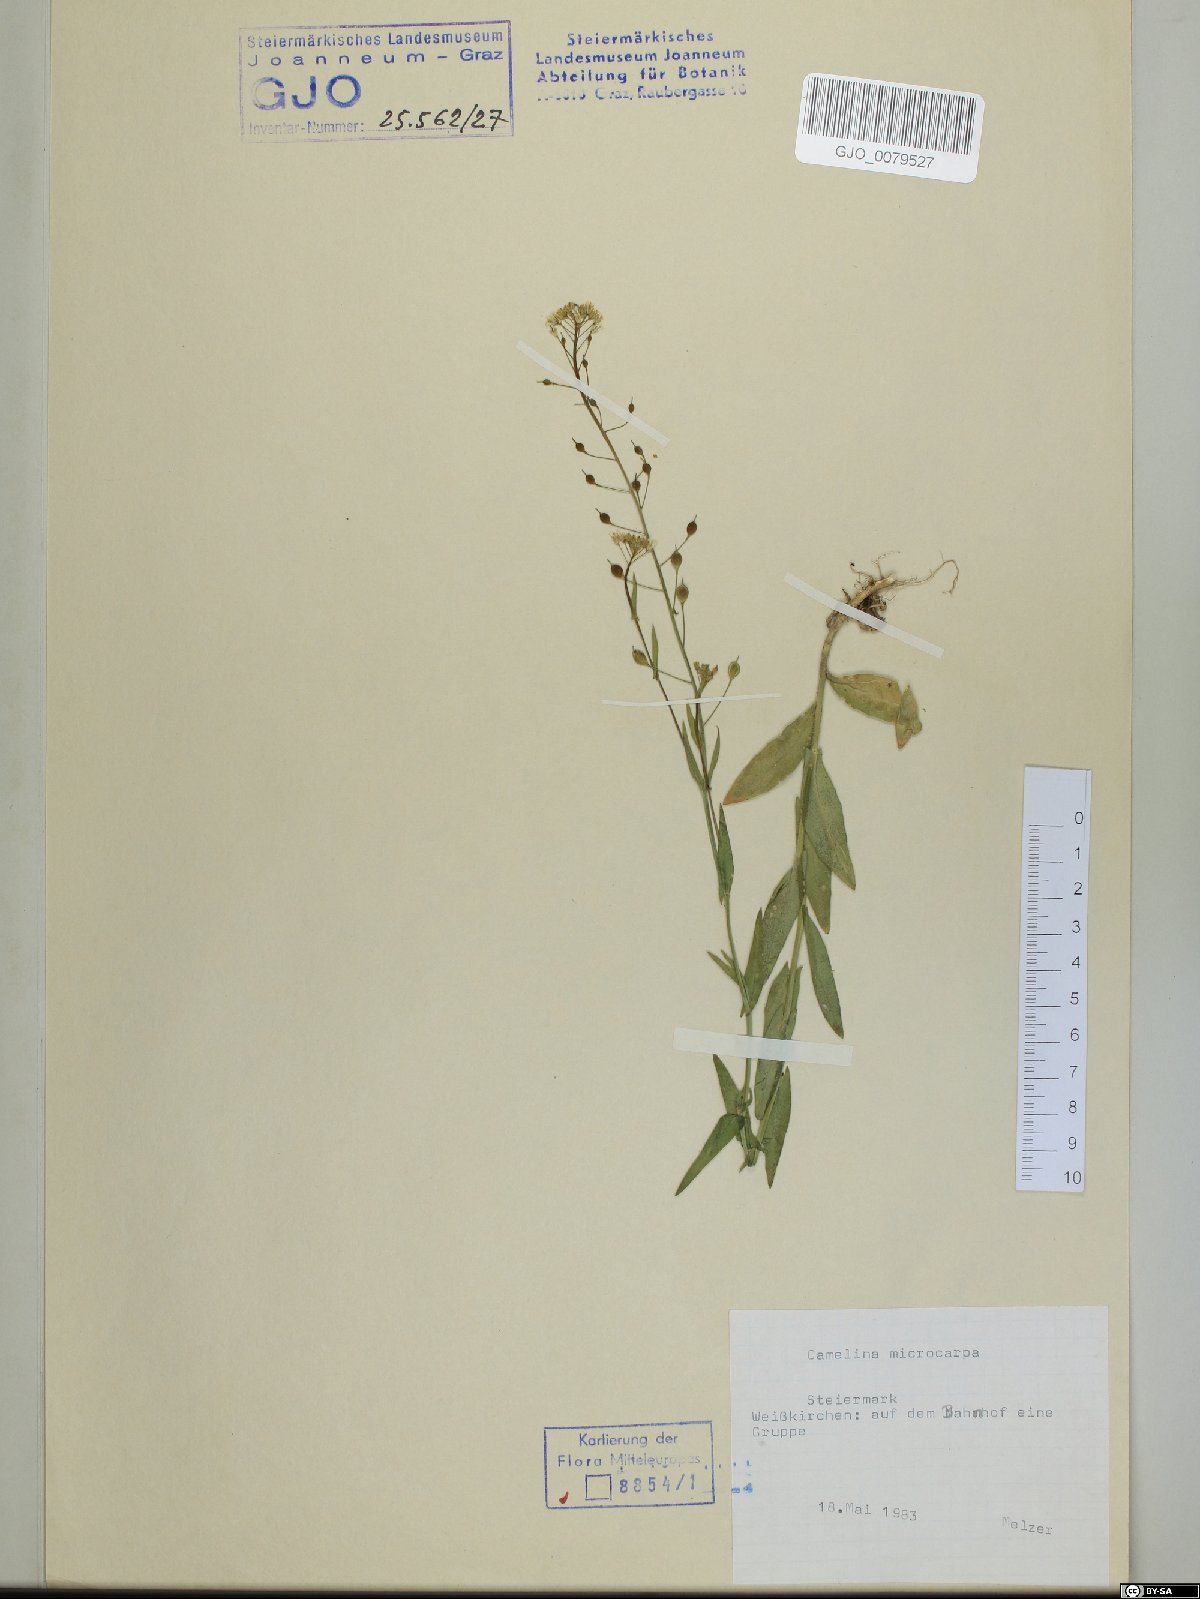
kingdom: Plantae
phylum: Tracheophyta
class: Magnoliopsida
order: Brassicales
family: Brassicaceae
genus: Camelina
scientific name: Camelina microcarpa
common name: Lesser gold-of-pleasure
